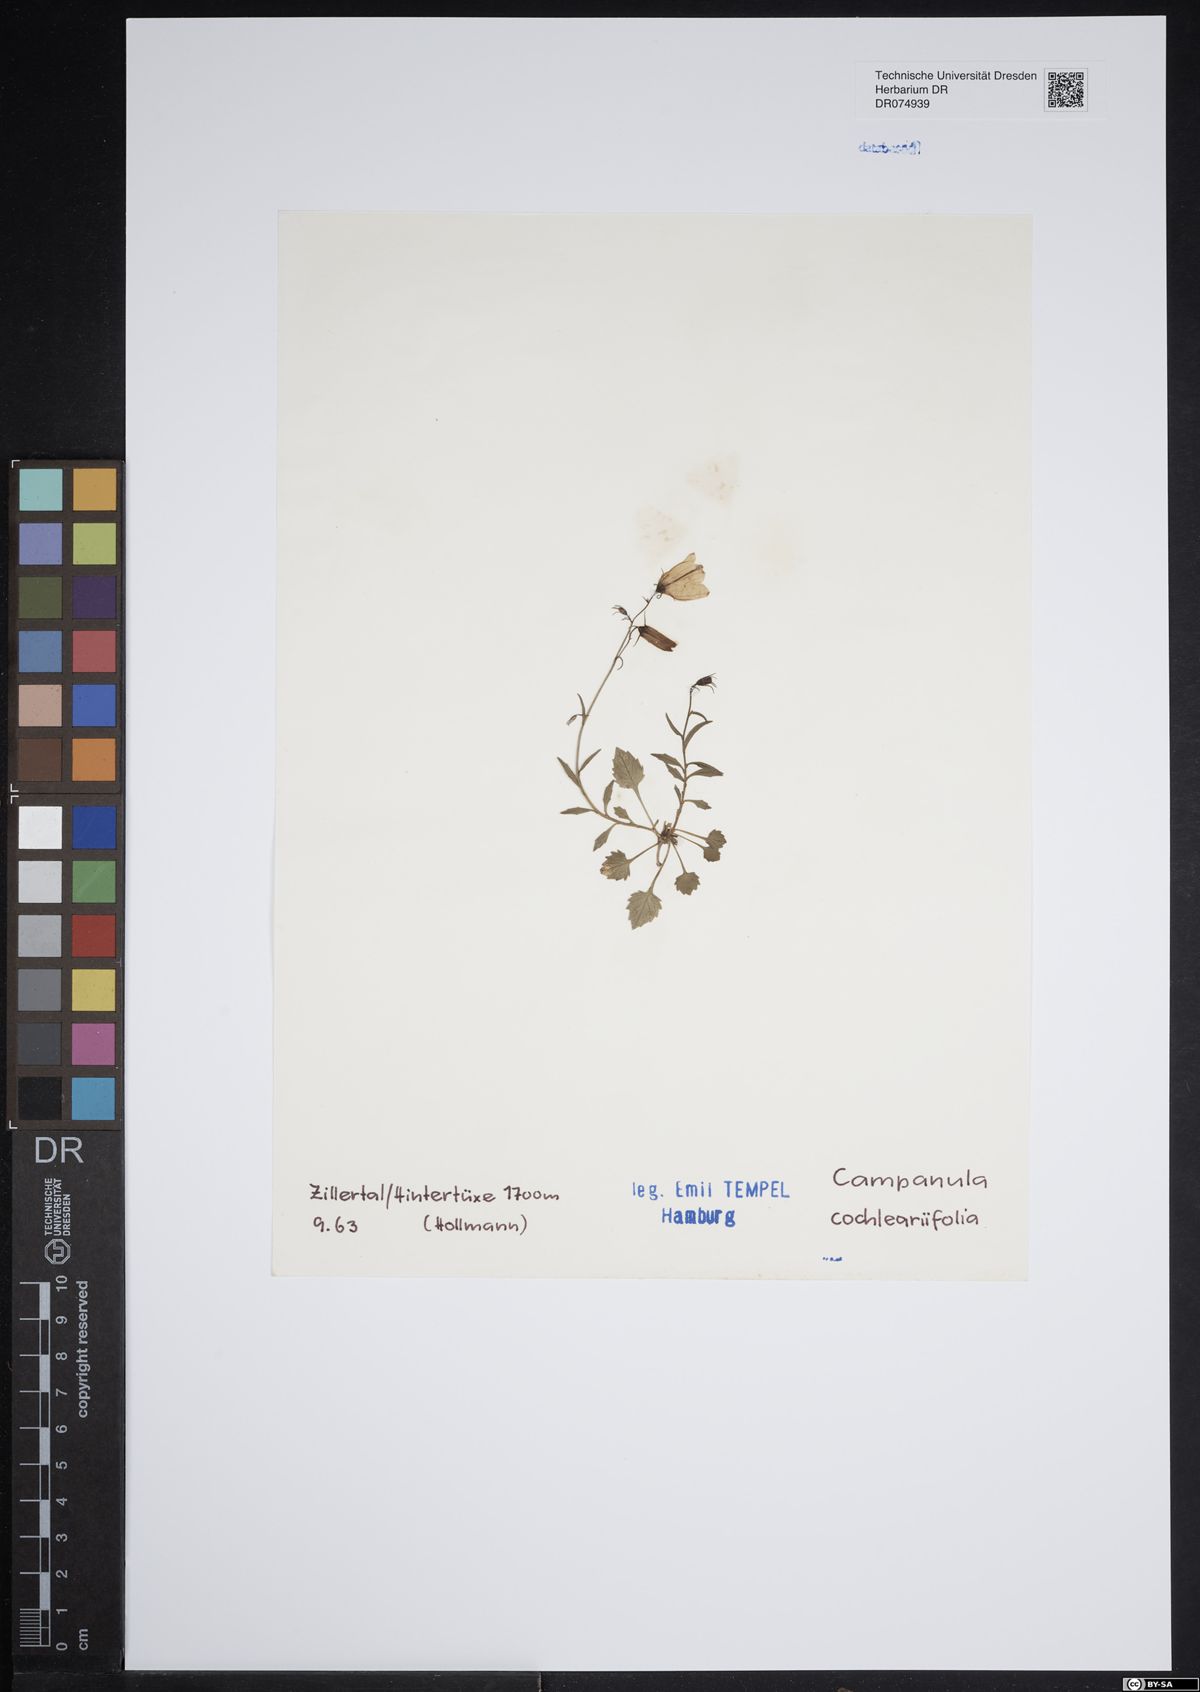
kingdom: Plantae
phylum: Tracheophyta
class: Magnoliopsida
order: Asterales
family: Campanulaceae
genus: Campanula
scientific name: Campanula cochleariifolia
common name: Fairies'-thimbles
